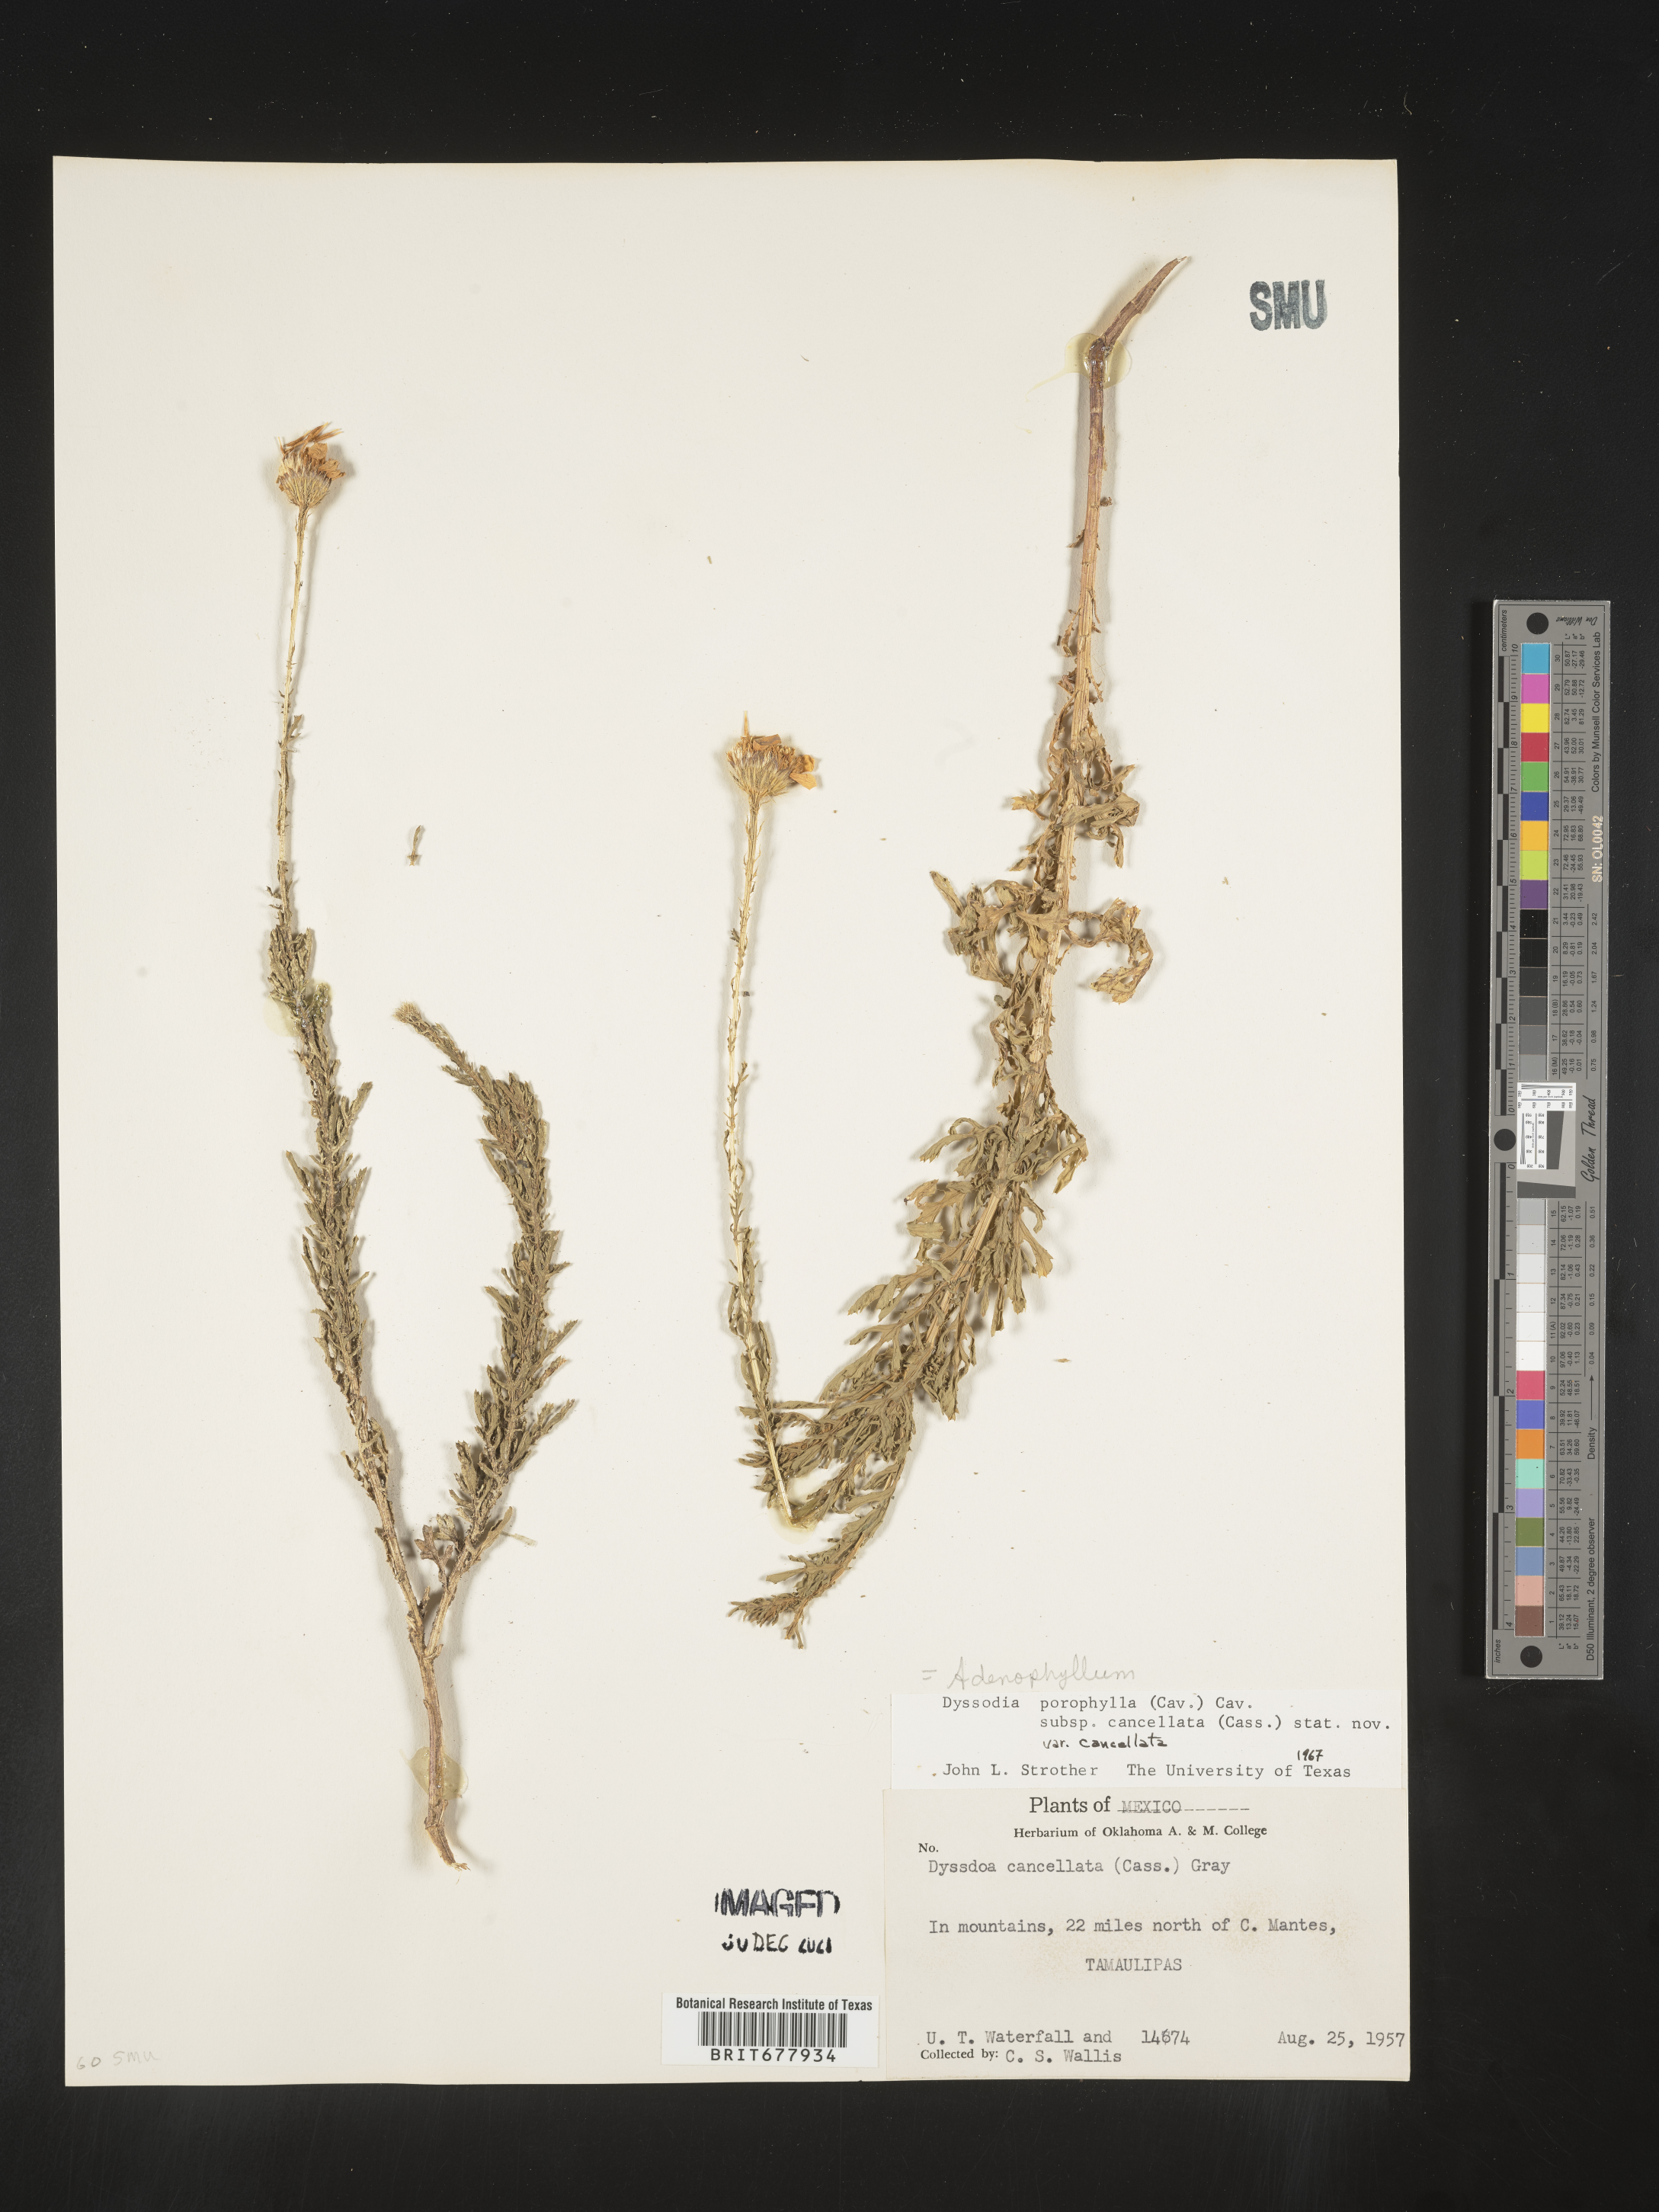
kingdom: Plantae
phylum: Tracheophyta
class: Magnoliopsida
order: Asterales
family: Asteraceae
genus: Adenophyllum
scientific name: Adenophyllum porophyllum
